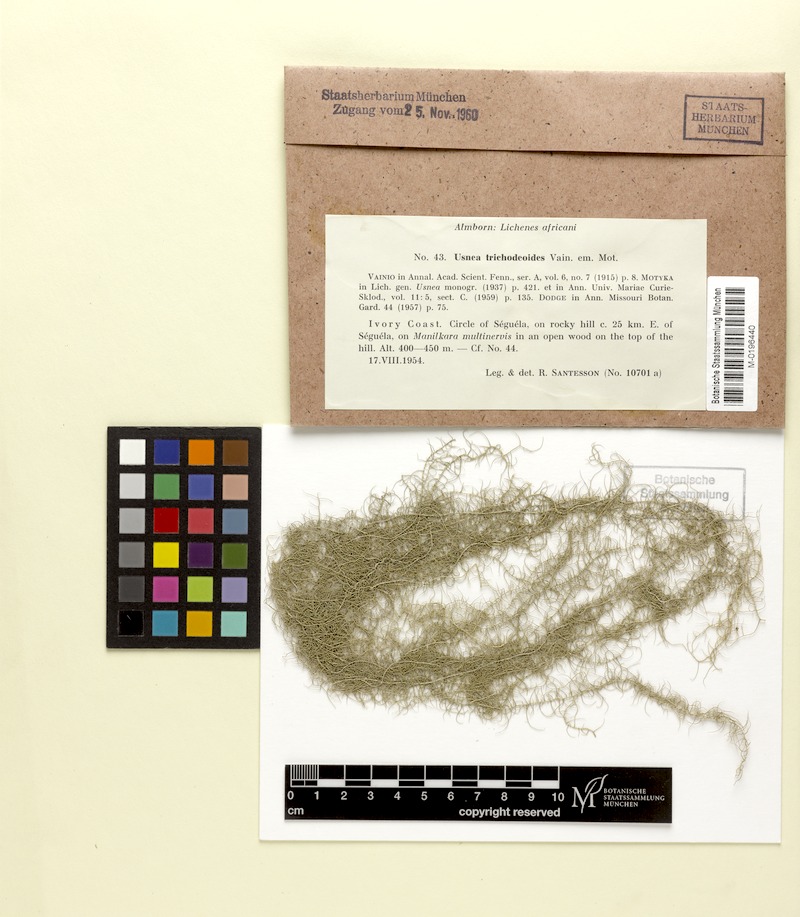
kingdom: Fungi
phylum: Ascomycota
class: Lecanoromycetes
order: Lecanorales
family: Parmeliaceae
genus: Dolichousnea
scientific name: Dolichousnea trichodeoides
